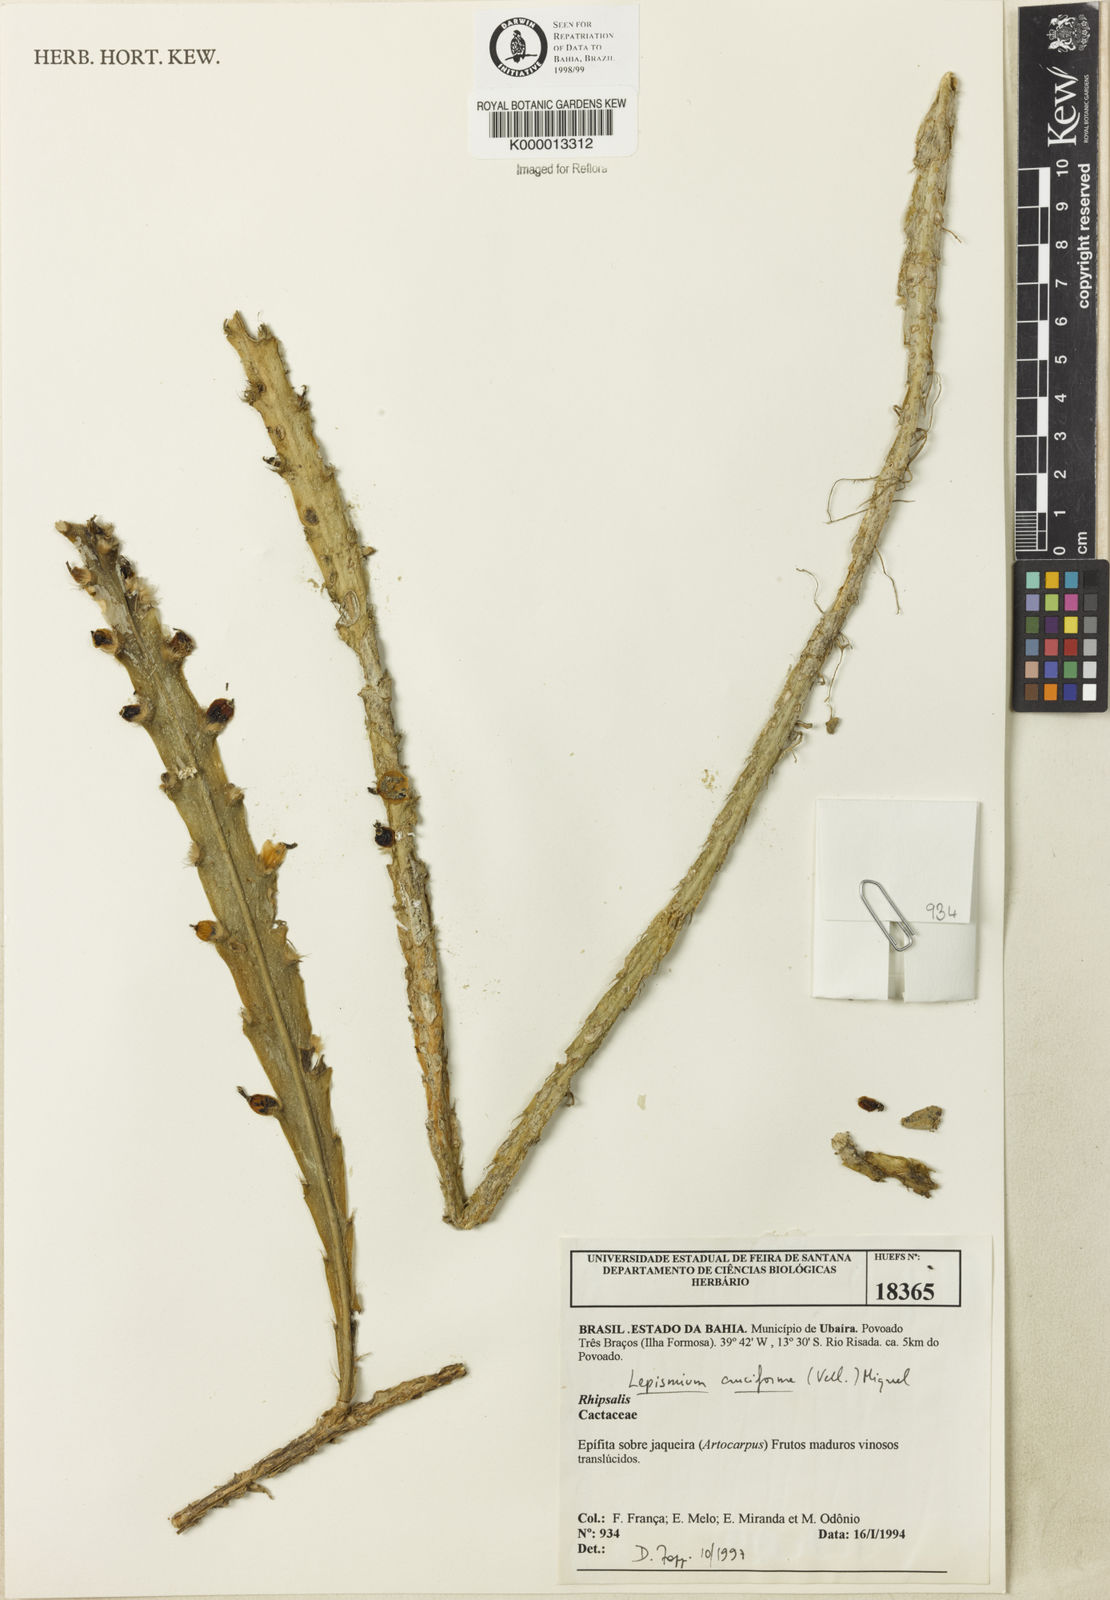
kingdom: Plantae
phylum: Tracheophyta
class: Magnoliopsida
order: Caryophyllales
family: Cactaceae
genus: Lepismium
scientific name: Lepismium cruciforme
